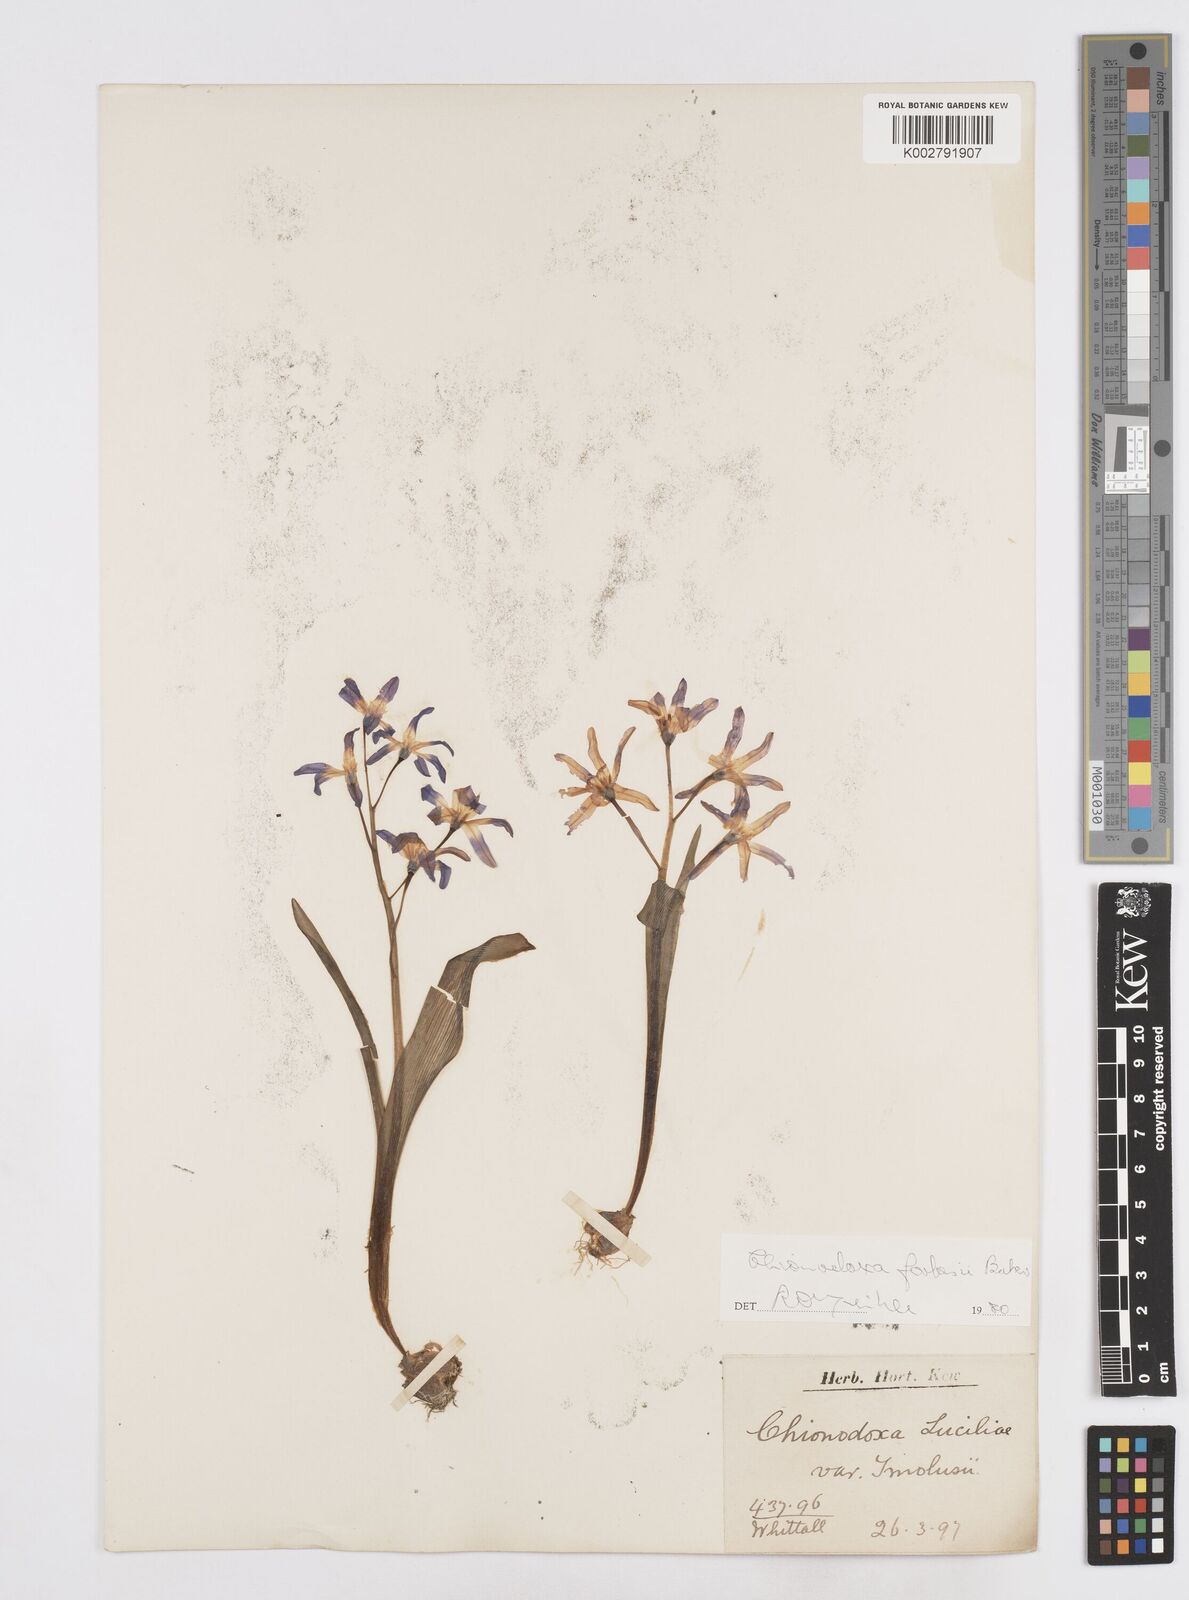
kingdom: Plantae
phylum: Tracheophyta
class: Liliopsida
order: Asparagales
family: Asparagaceae
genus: Scilla
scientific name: Scilla forbesii
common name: Glory-of-the-snow
